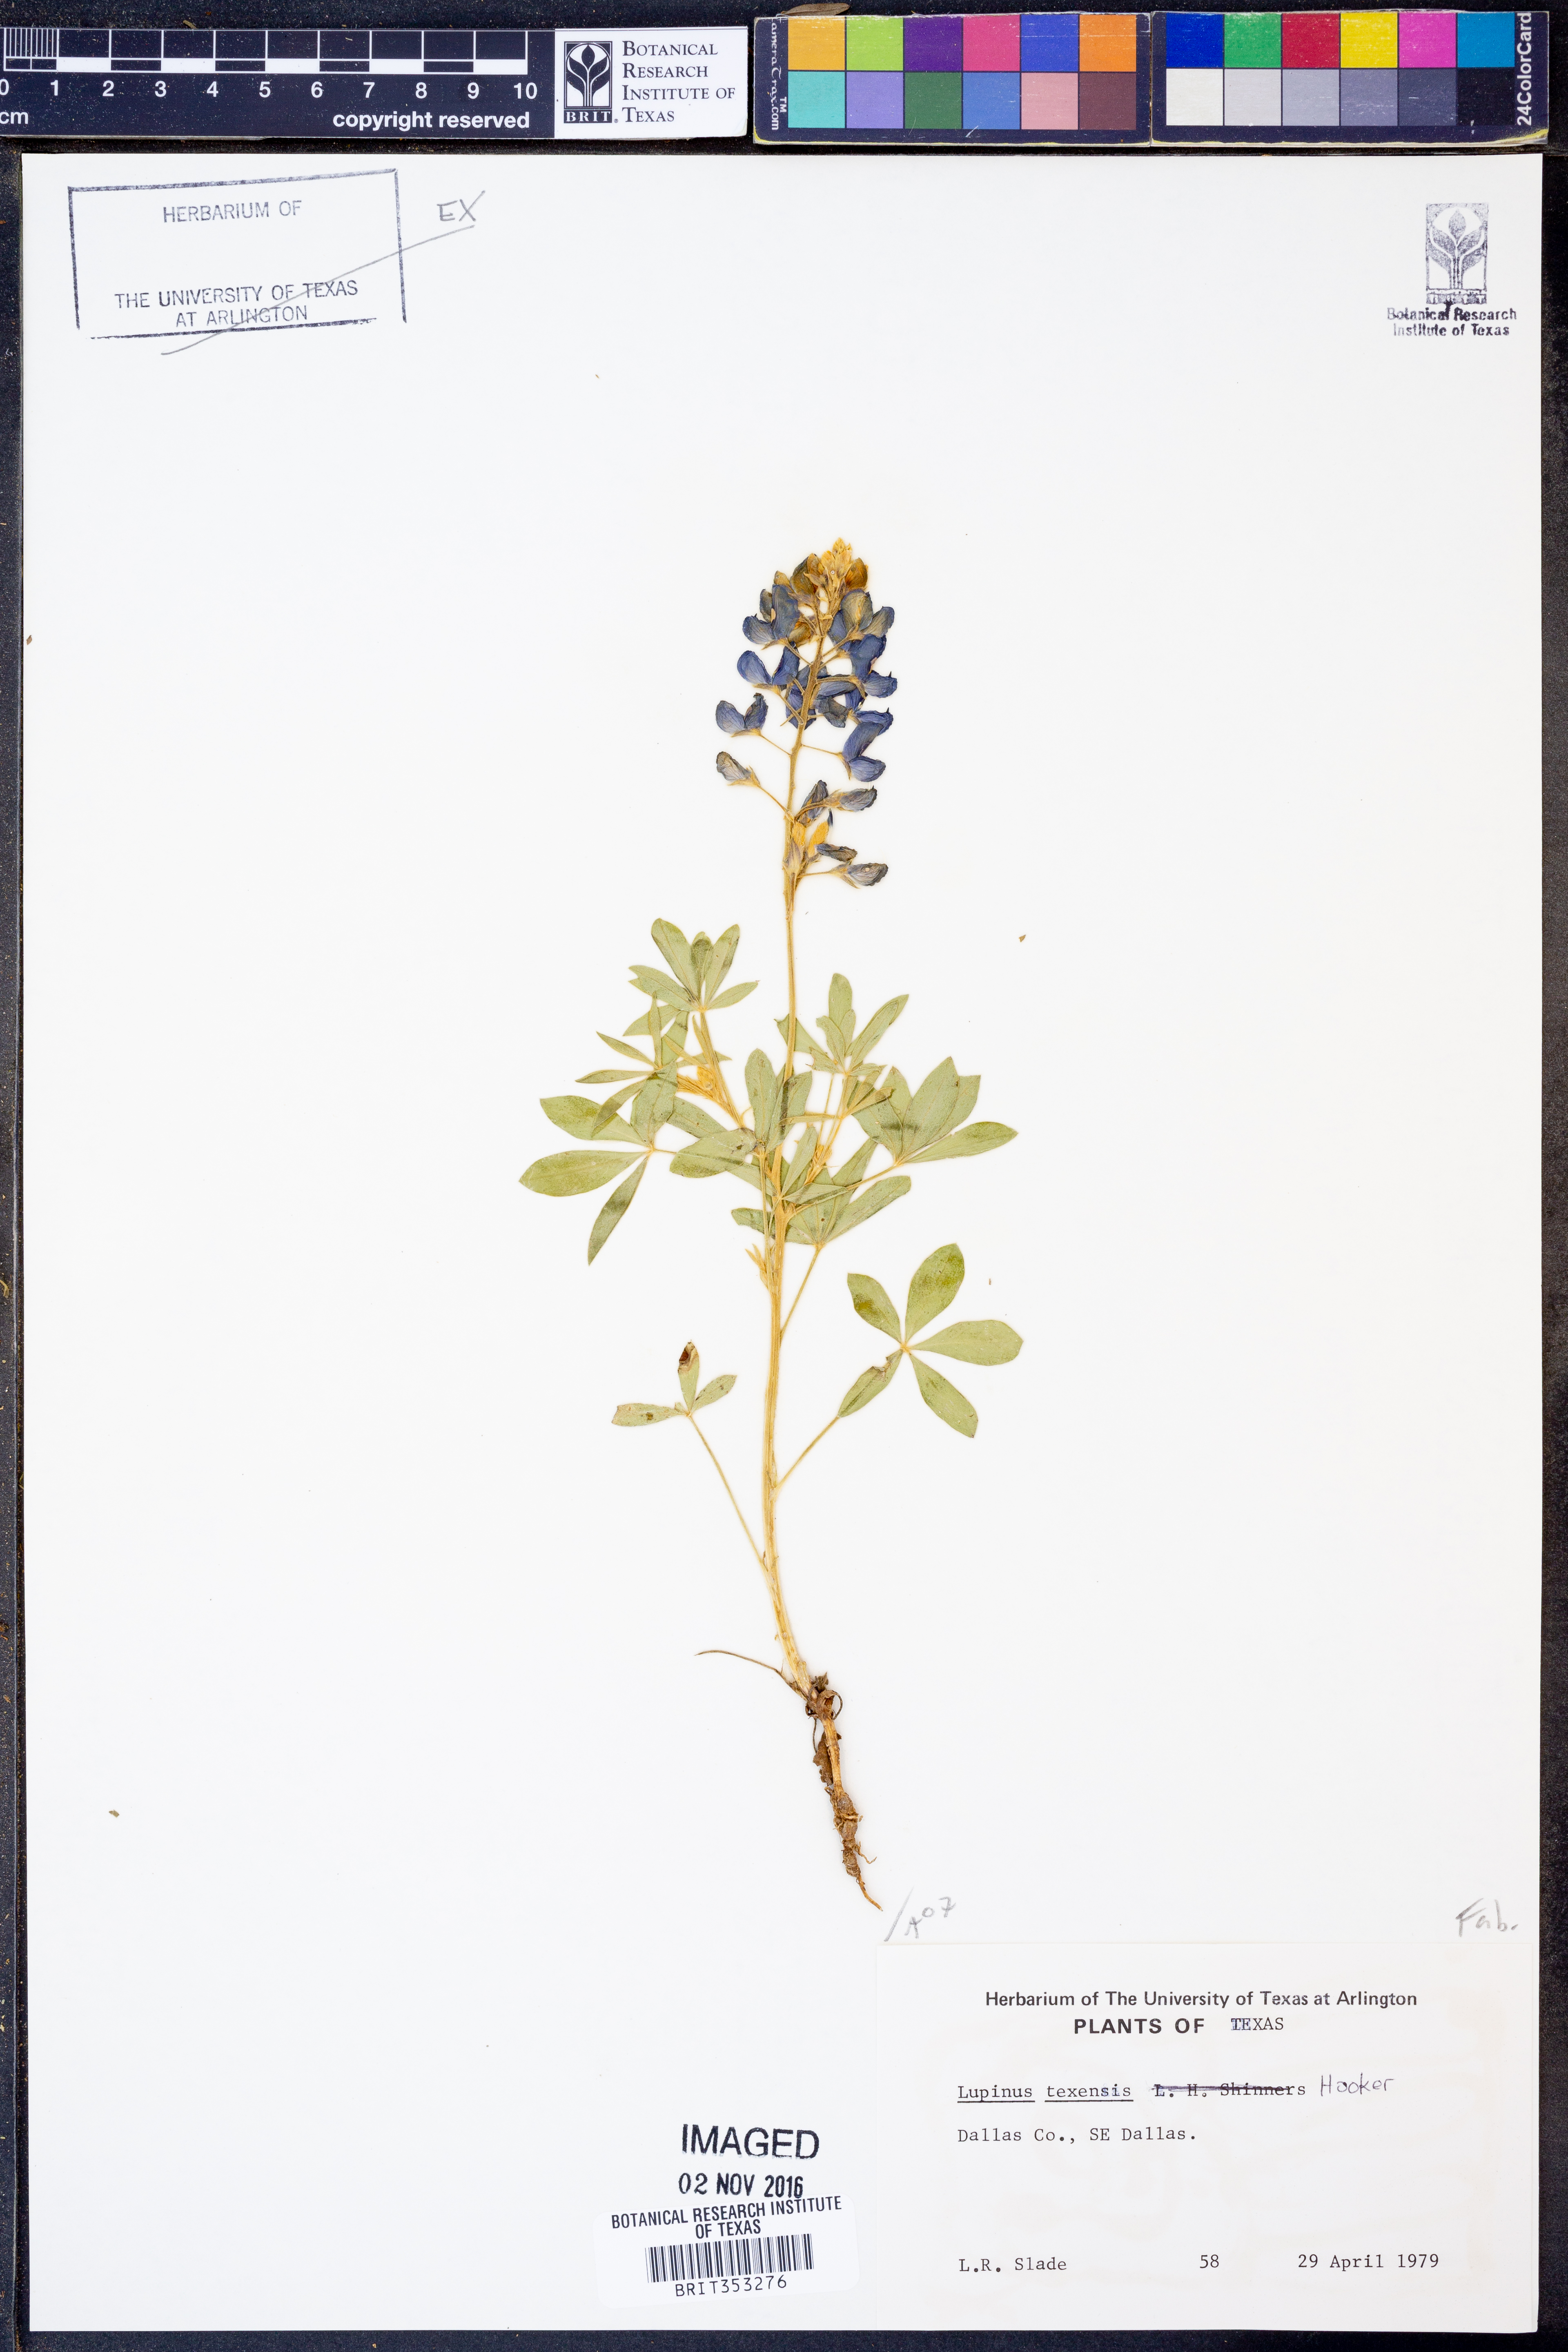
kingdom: Plantae
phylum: Tracheophyta
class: Magnoliopsida
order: Fabales
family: Fabaceae
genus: Lupinus
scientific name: Lupinus texensis
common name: Texas bluebonnet
